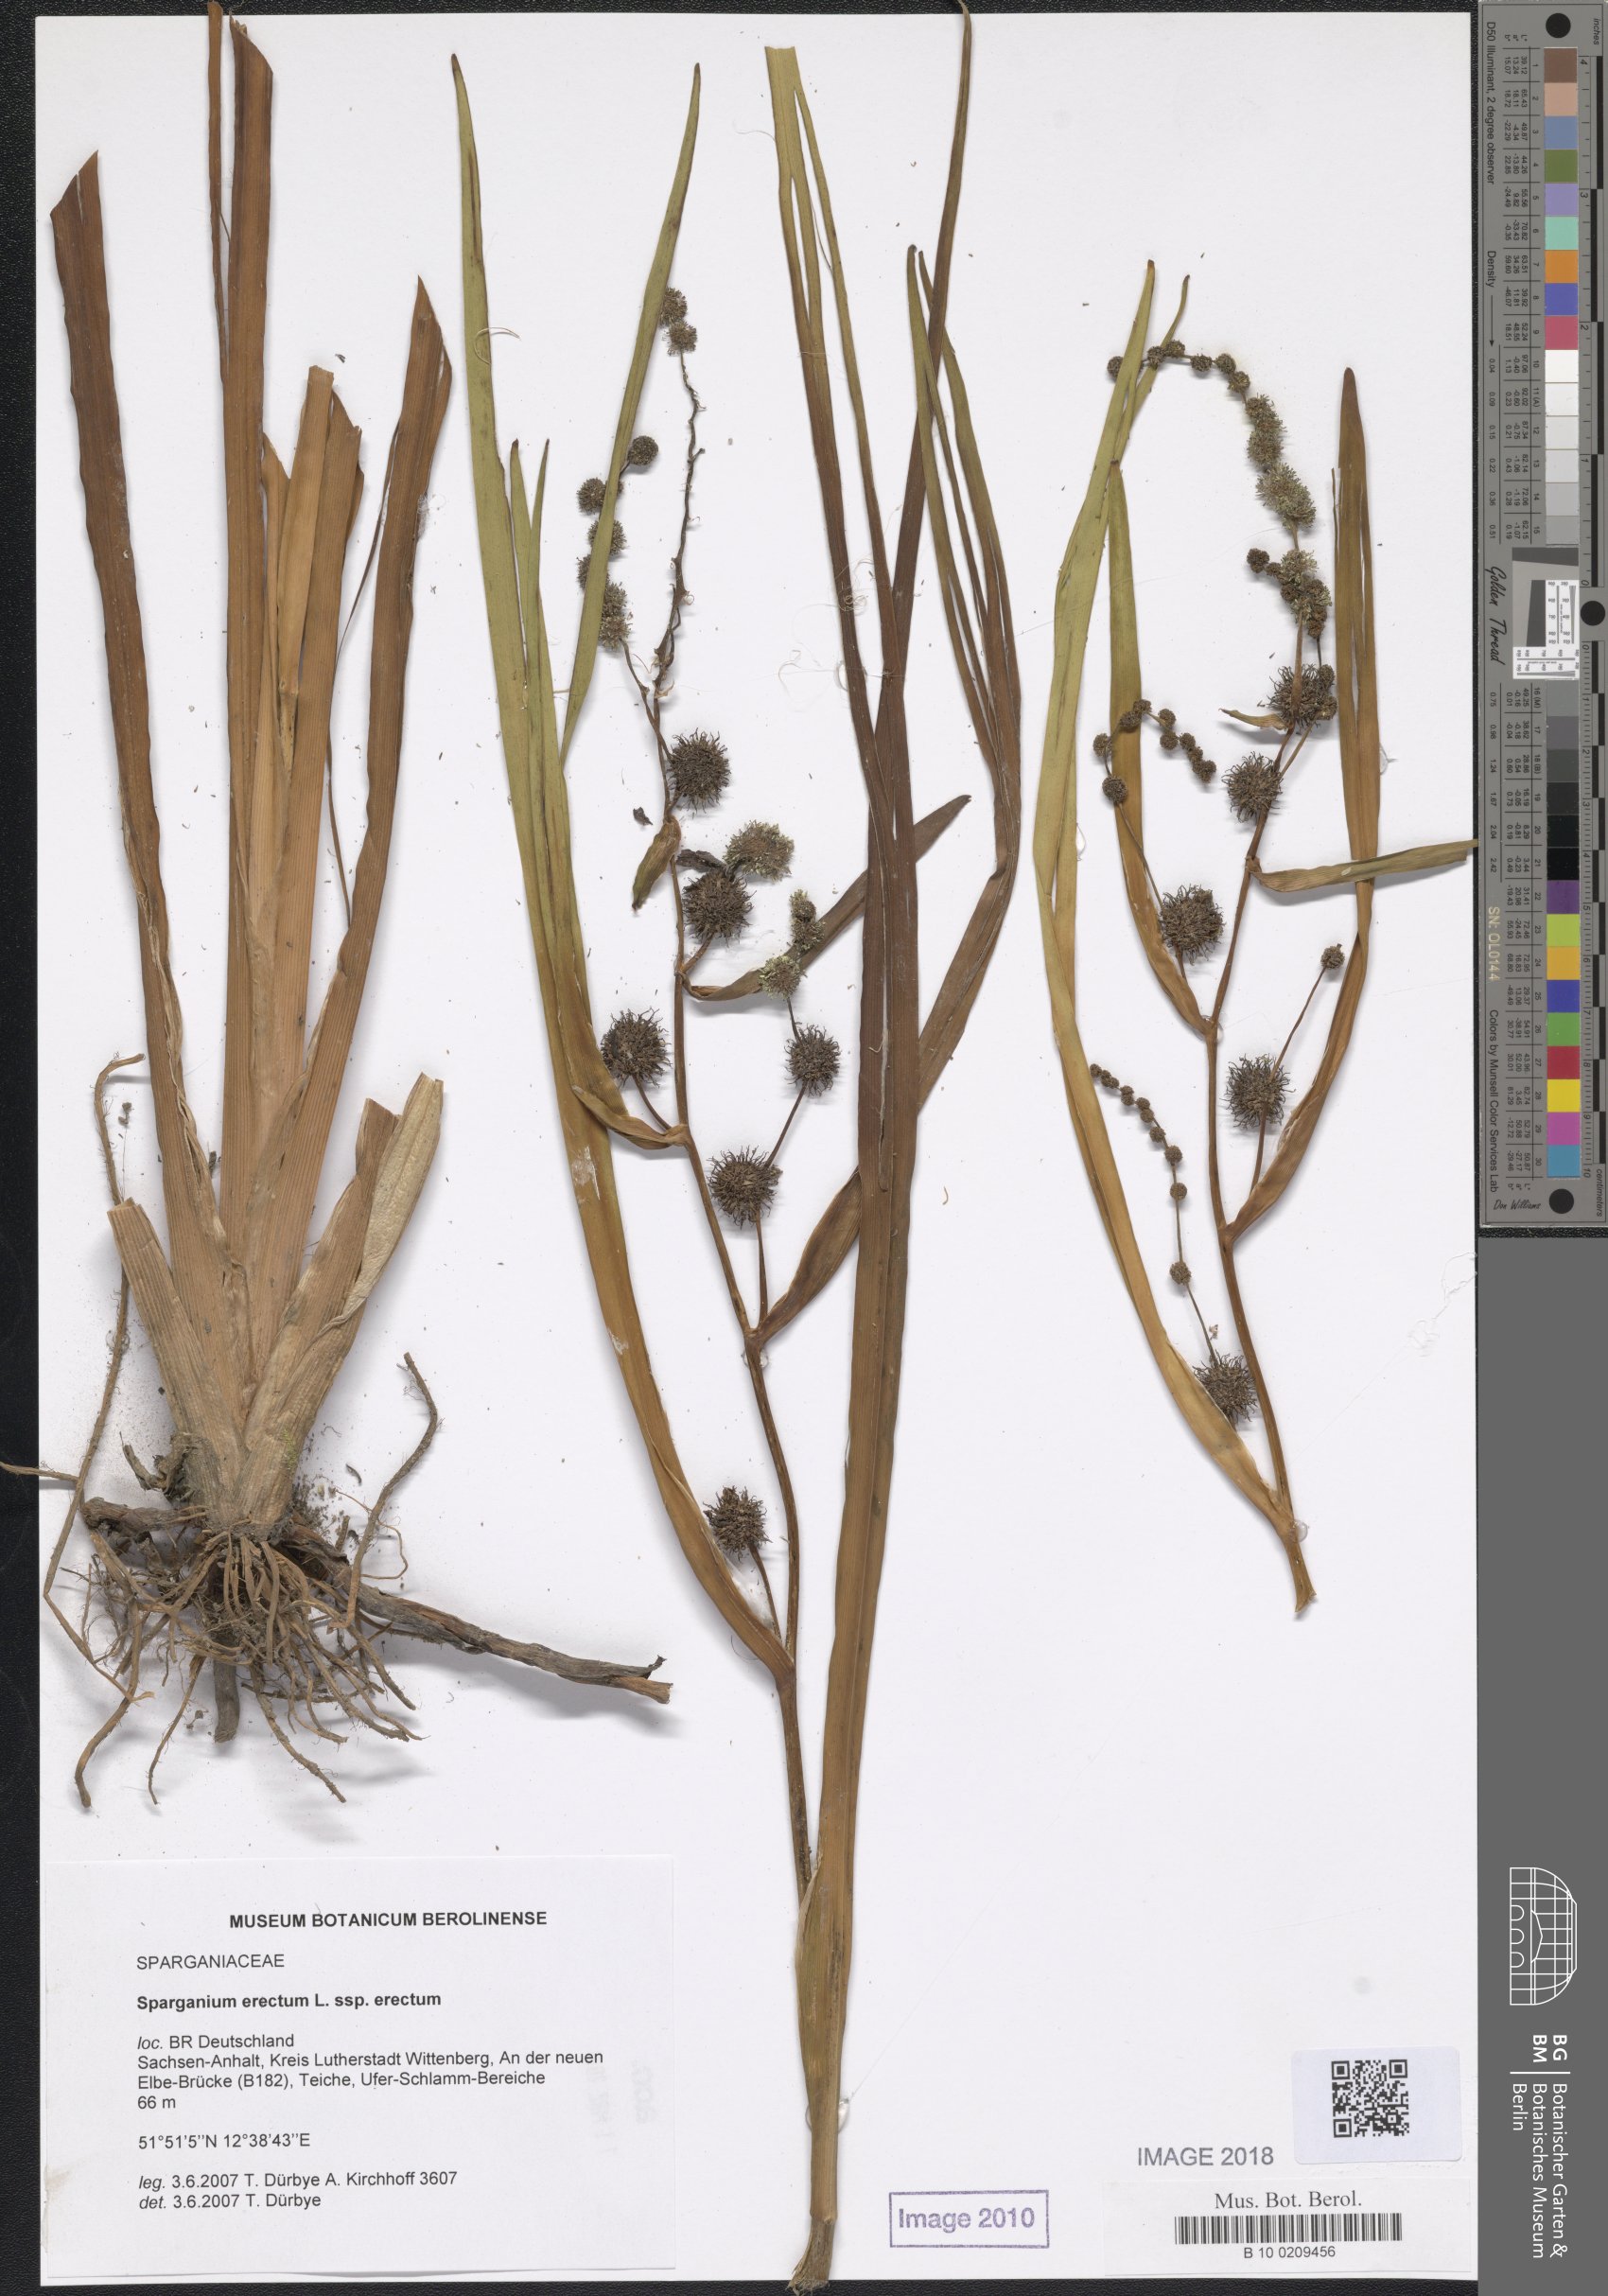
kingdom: Plantae
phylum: Tracheophyta
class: Liliopsida
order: Poales
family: Typhaceae
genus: Sparganium
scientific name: Sparganium erectum
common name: Branched bur-reed
